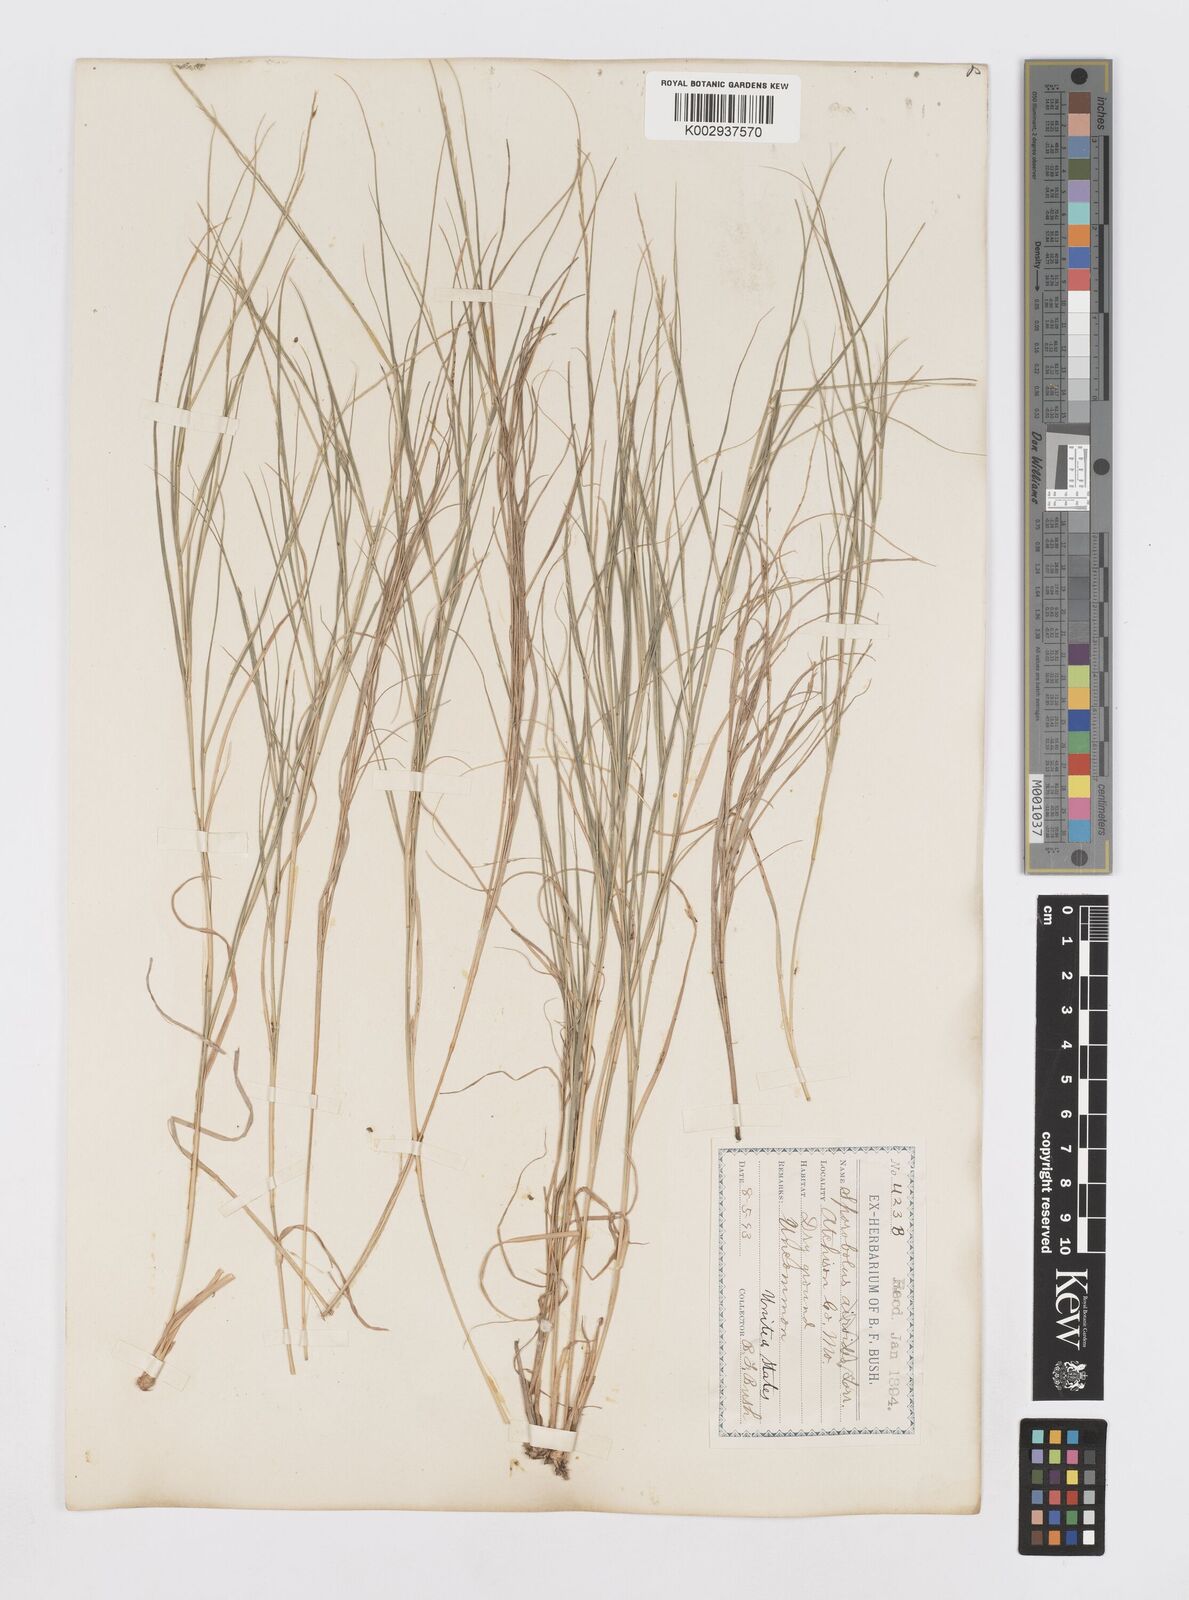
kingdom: Plantae
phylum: Tracheophyta
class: Liliopsida
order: Poales
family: Poaceae
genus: Sporobolus
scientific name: Sporobolus
